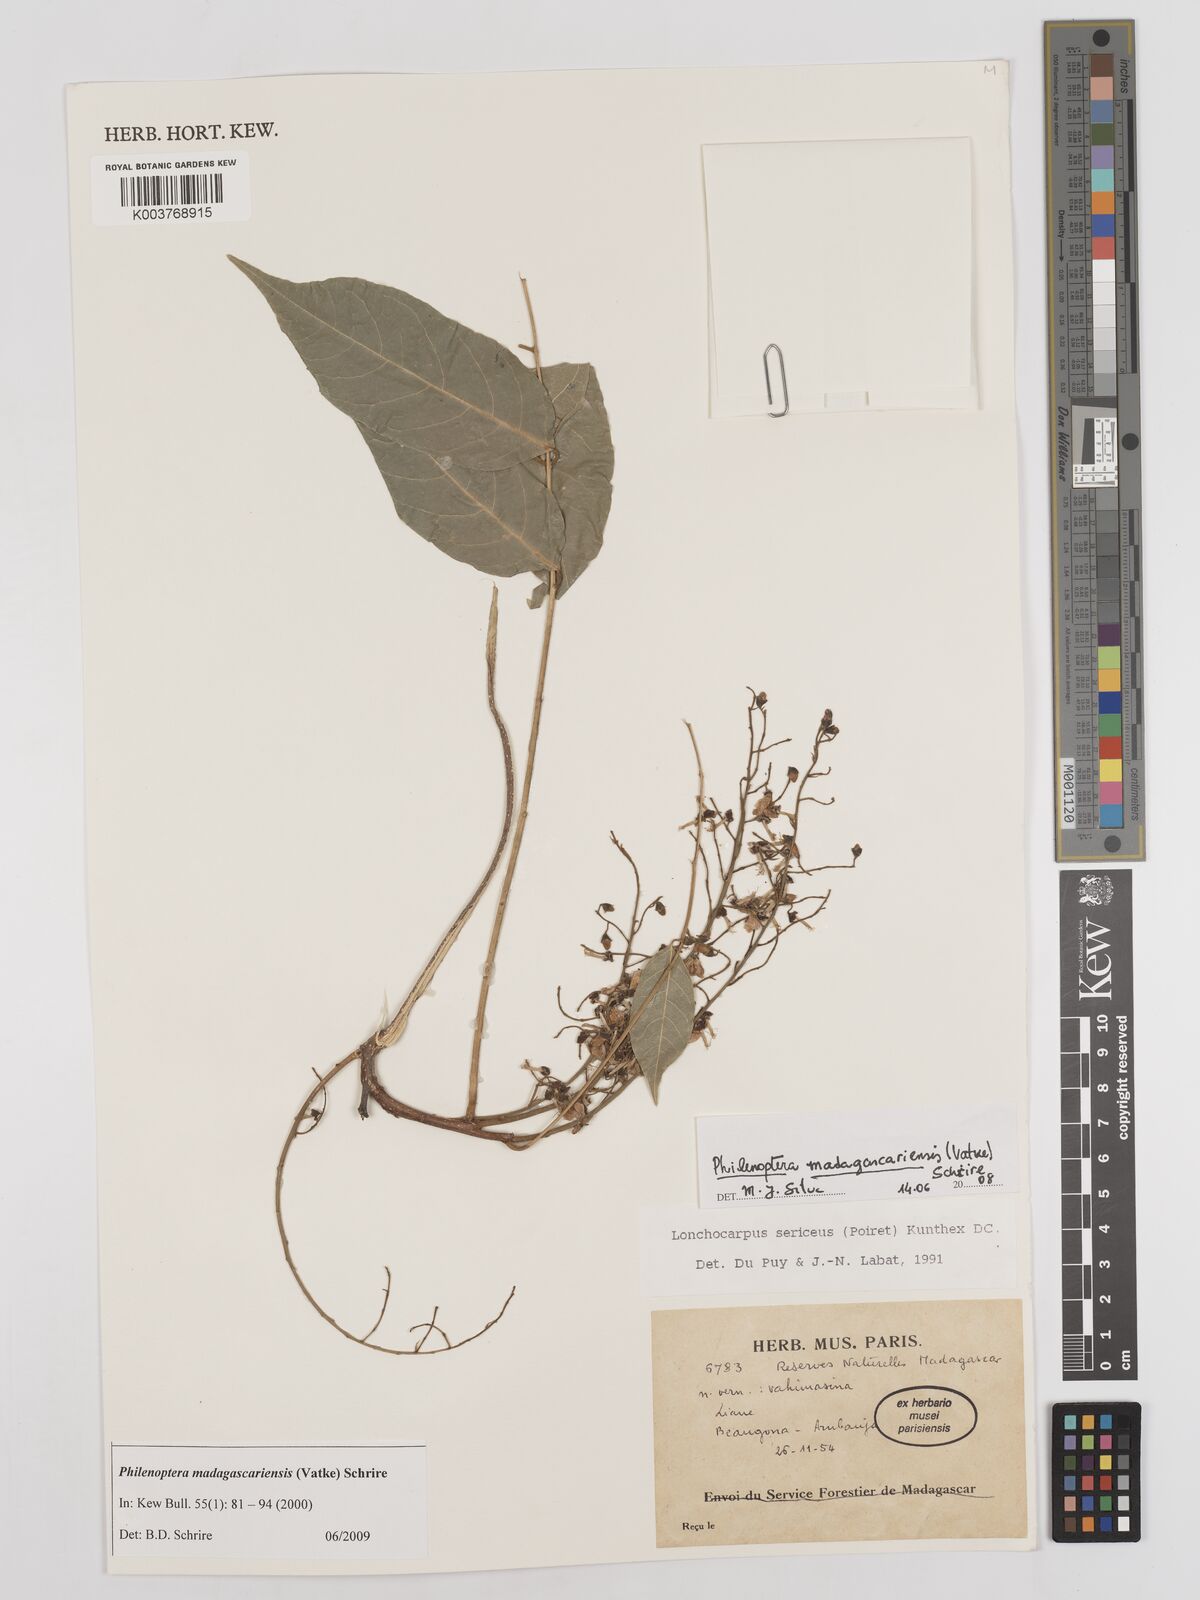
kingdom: Plantae
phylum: Tracheophyta
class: Magnoliopsida
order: Fabales
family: Fabaceae
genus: Lonchocarpus
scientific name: Lonchocarpus madagascariensis
